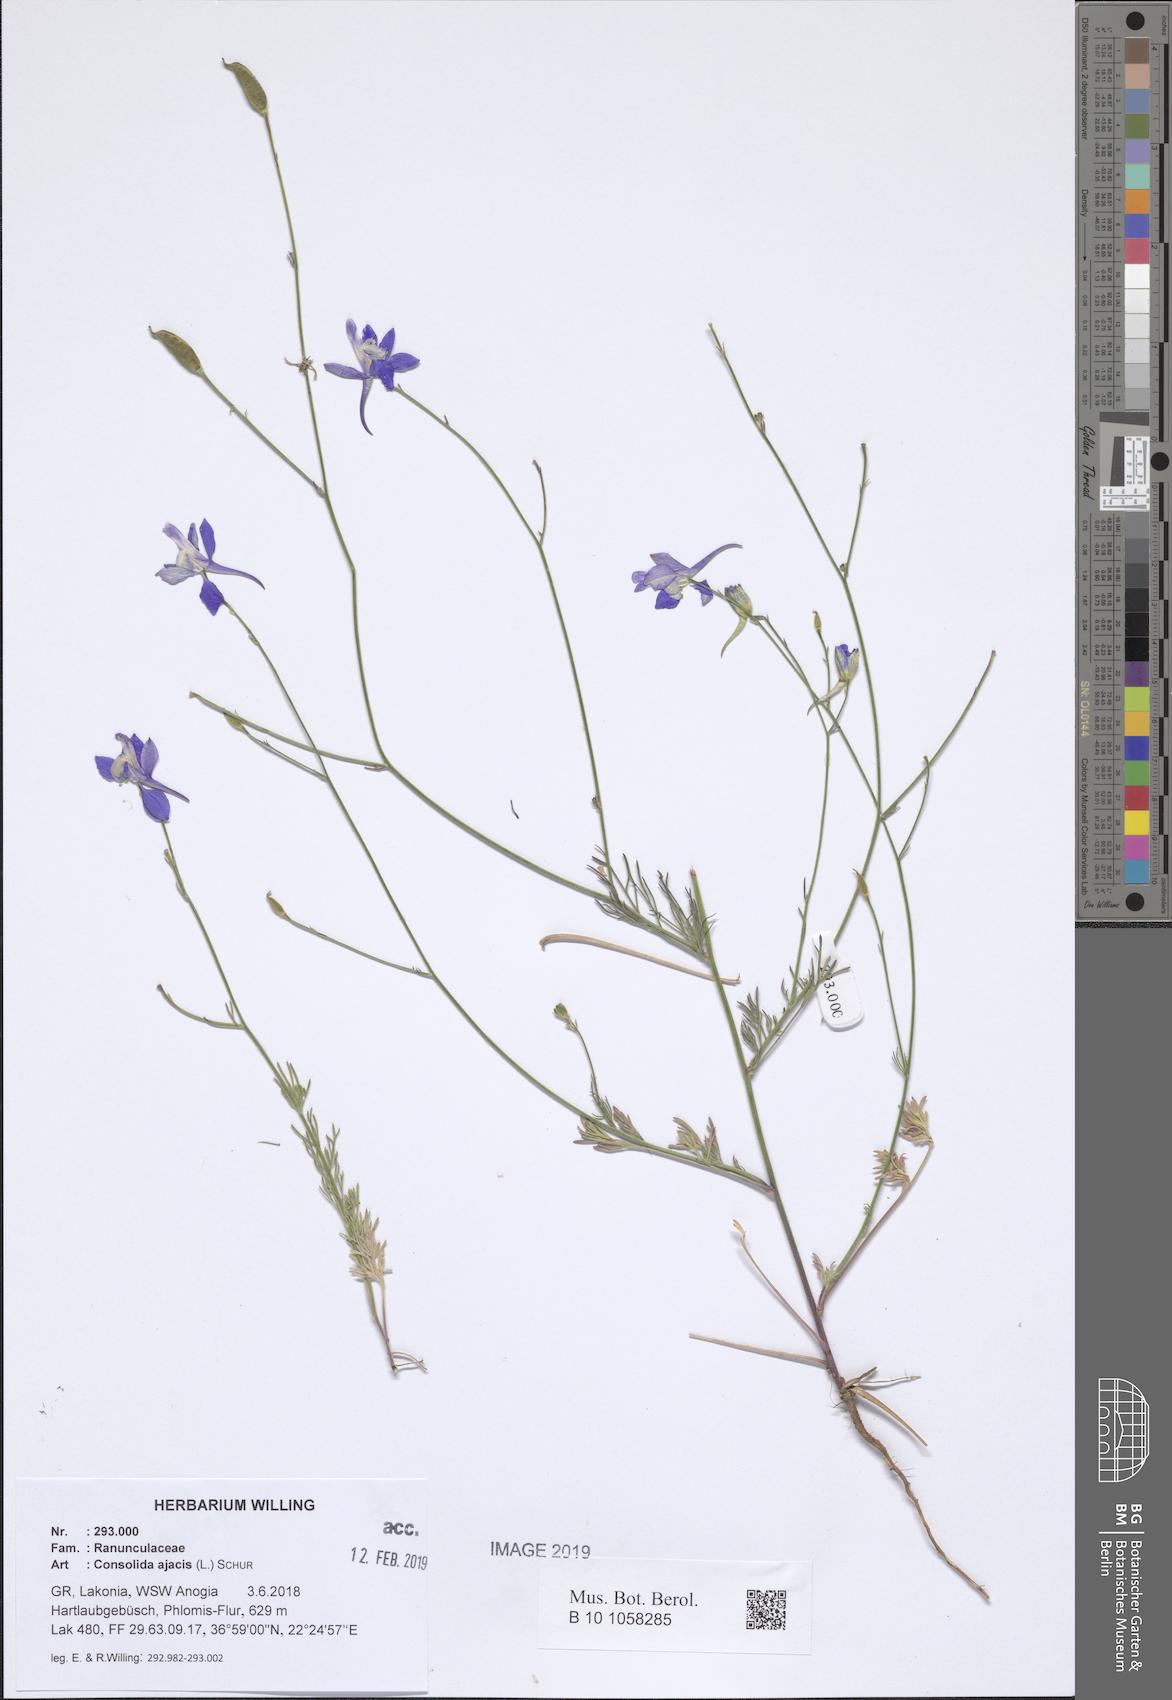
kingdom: Plantae
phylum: Tracheophyta
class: Magnoliopsida
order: Ranunculales
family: Ranunculaceae
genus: Delphinium
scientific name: Delphinium ajacis
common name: Doubtful knight's-spur
